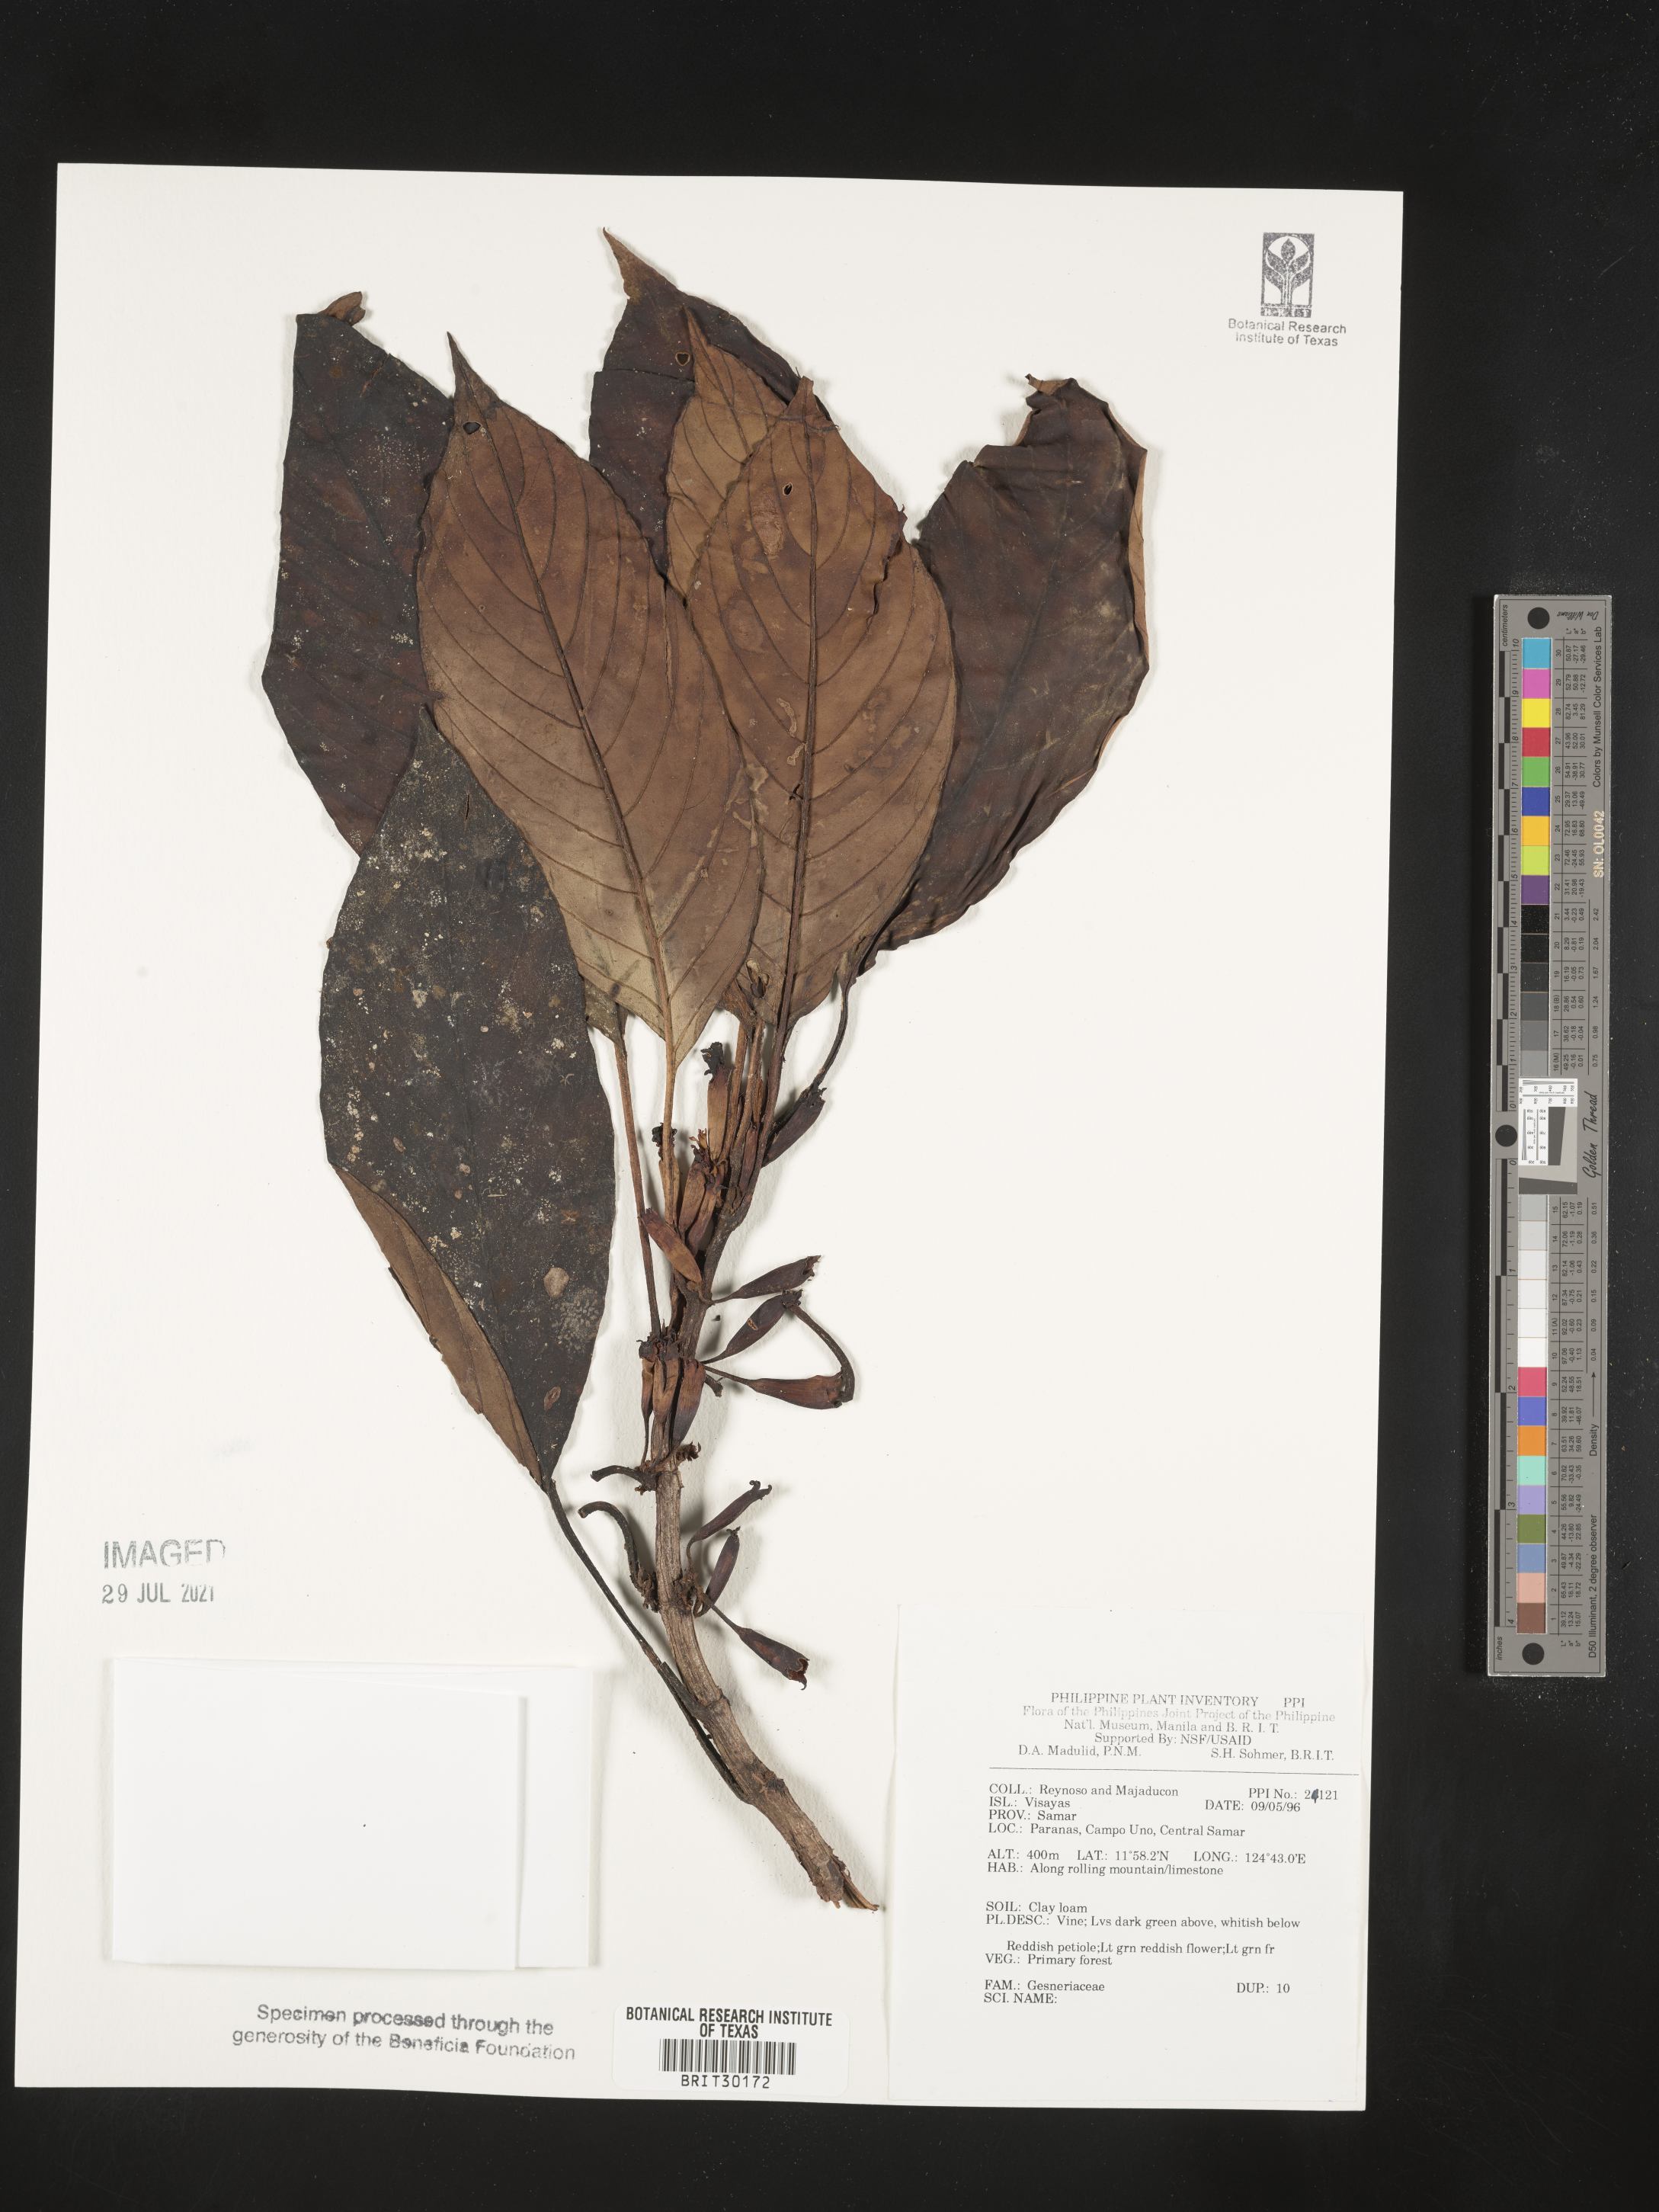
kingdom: Plantae
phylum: Tracheophyta
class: Magnoliopsida
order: Lamiales
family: Gesneriaceae
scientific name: Gesneriaceae
